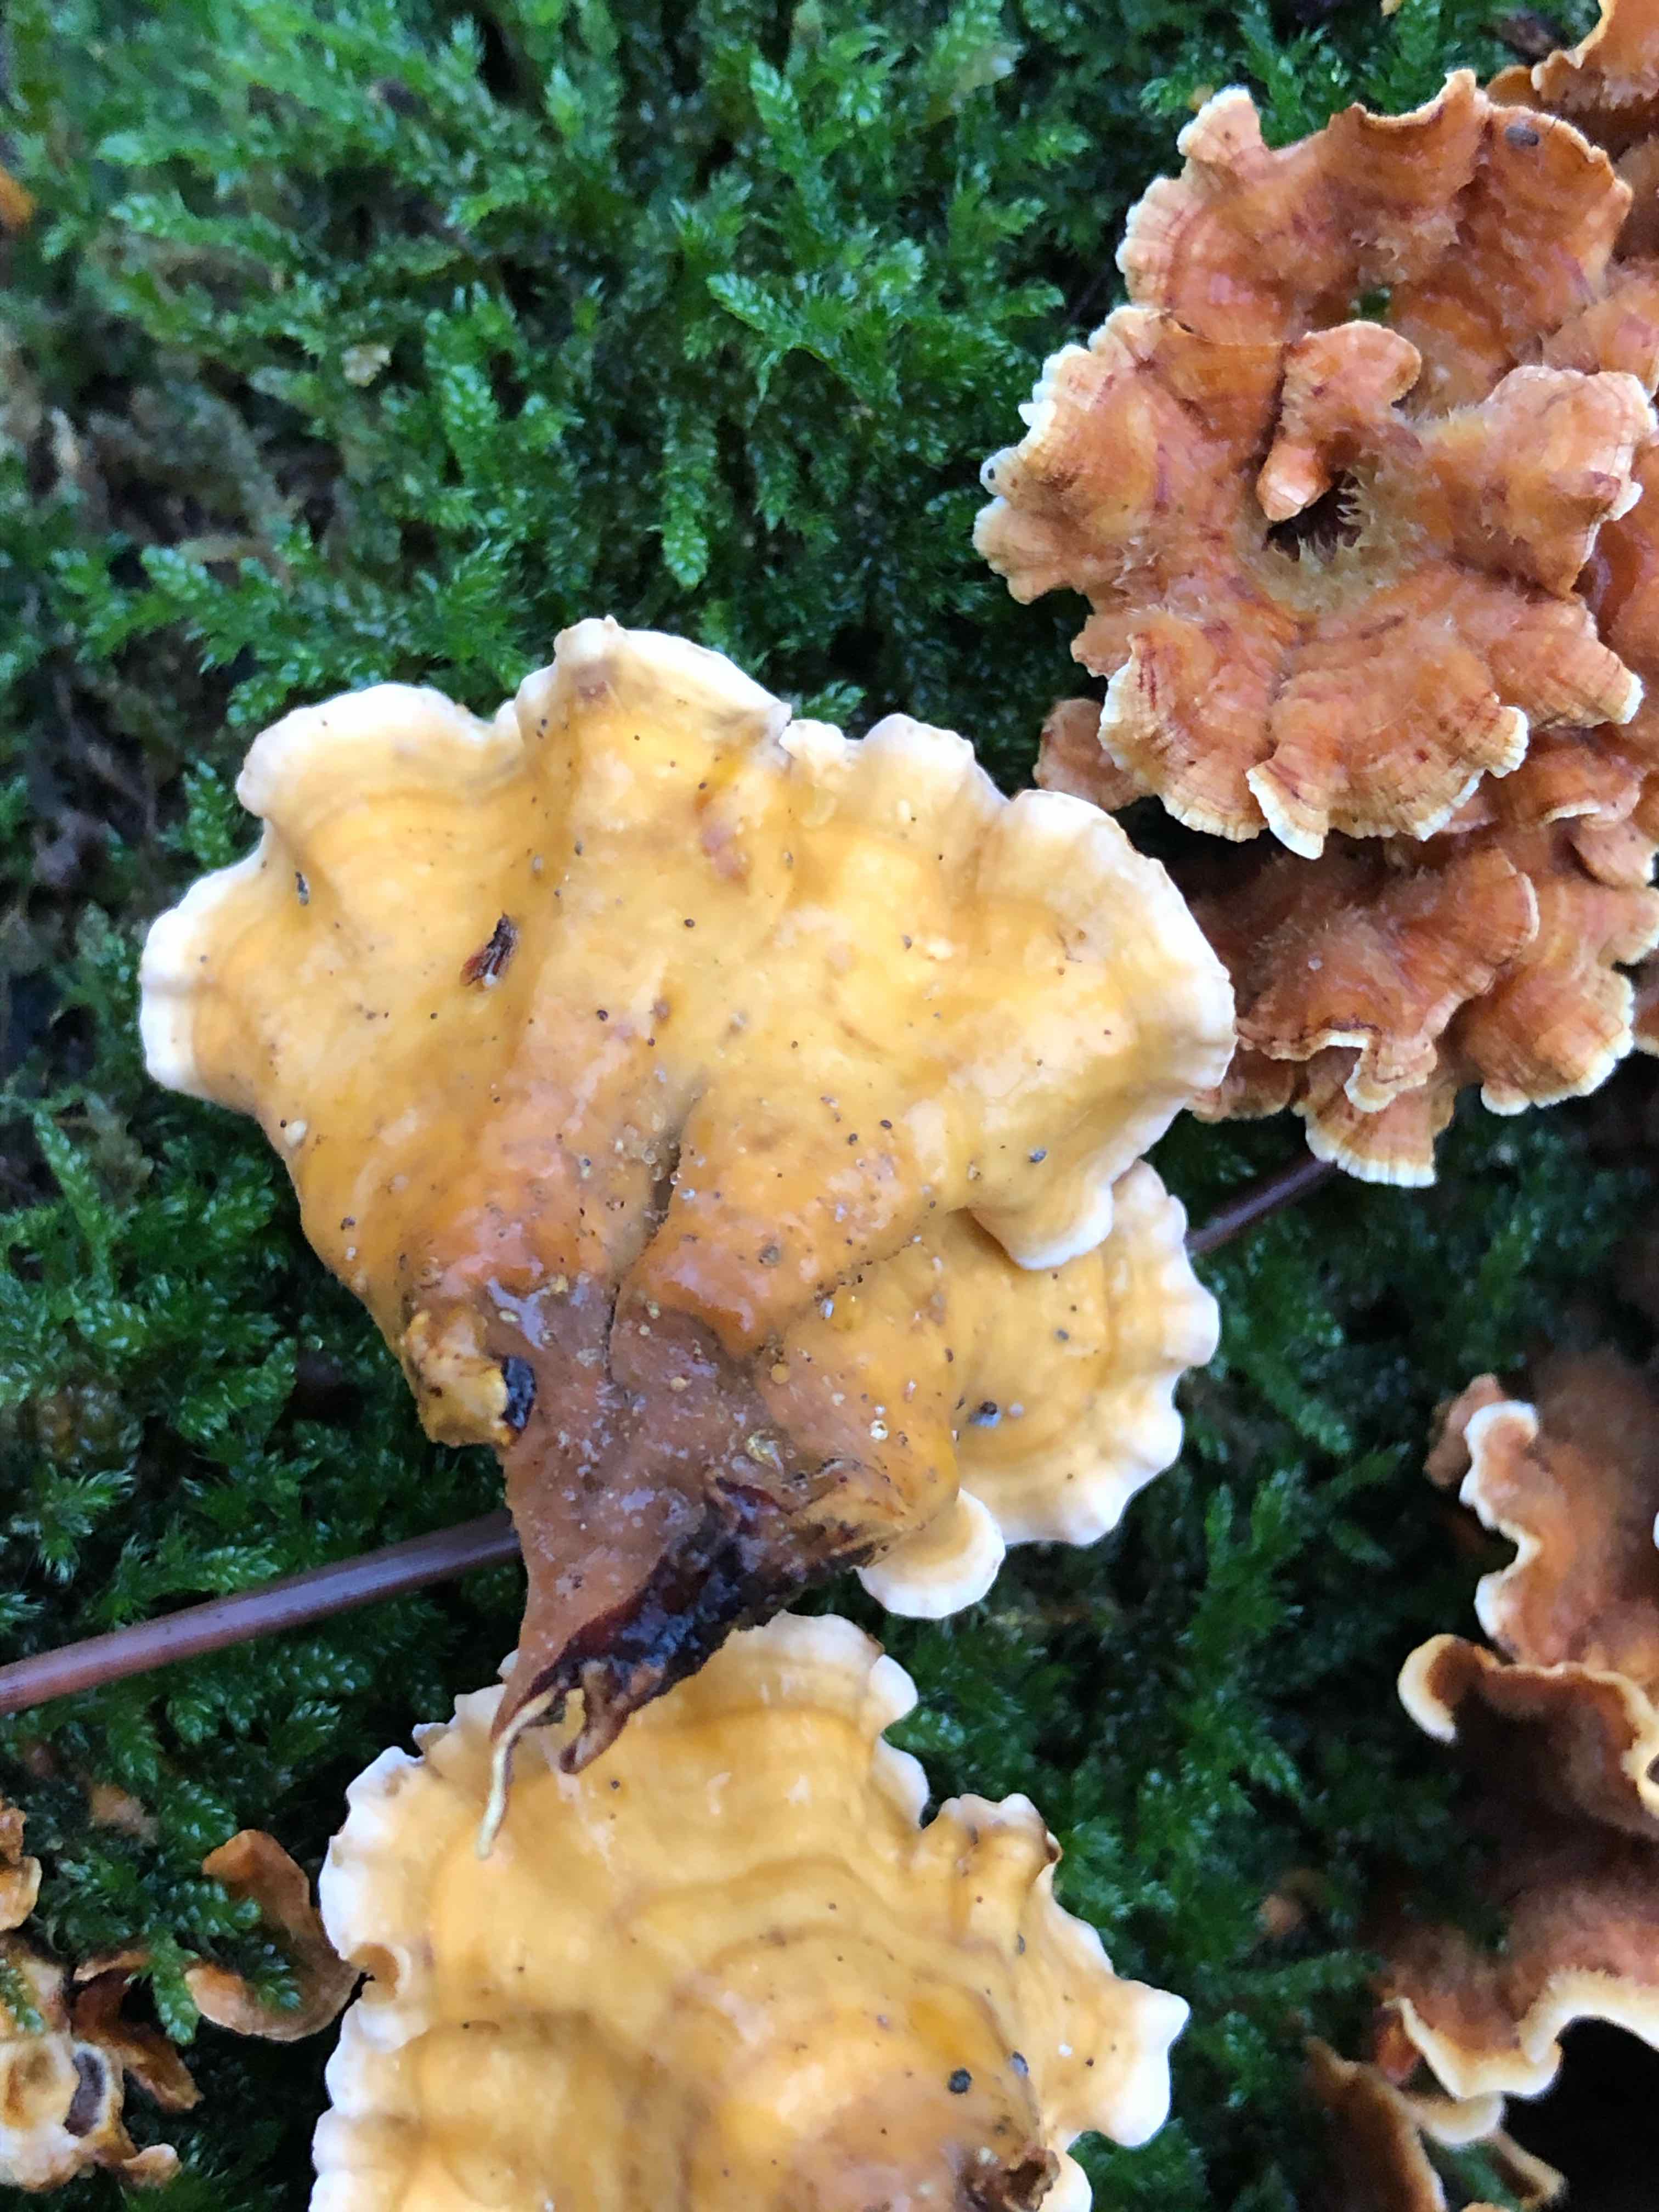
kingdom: Fungi
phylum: Basidiomycota
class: Agaricomycetes
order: Russulales
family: Stereaceae
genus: Stereum
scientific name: Stereum hirsutum
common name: håret lædersvamp
